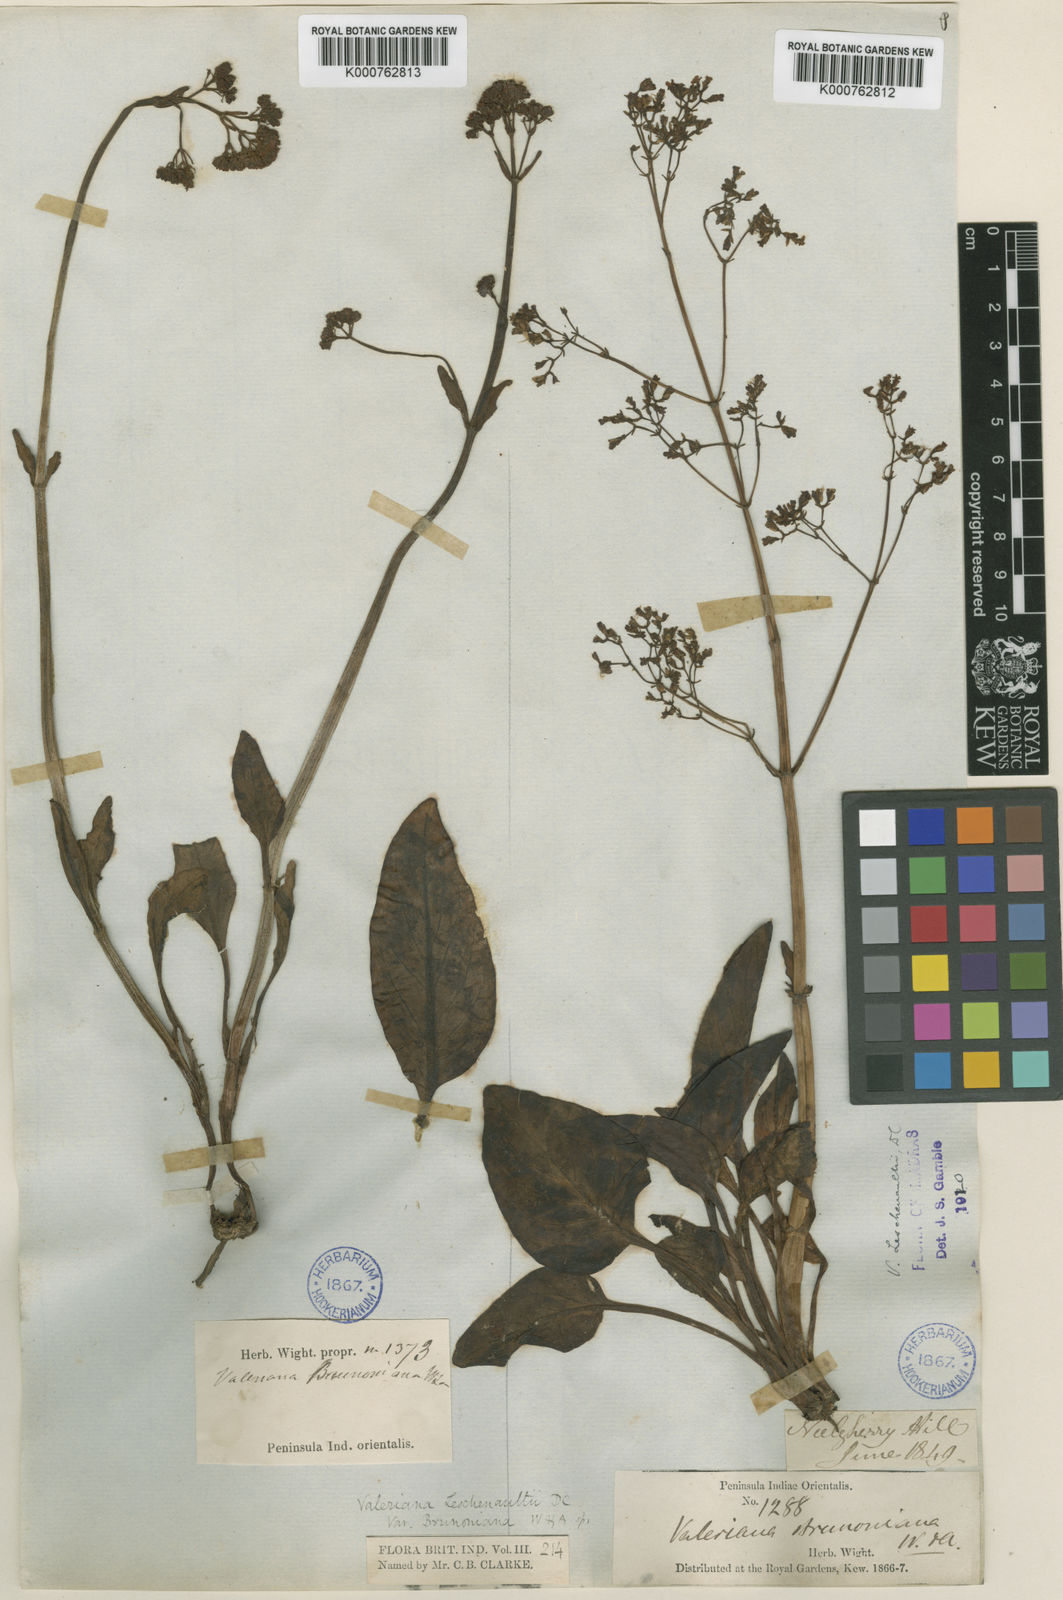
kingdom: Plantae
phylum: Tracheophyta
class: Magnoliopsida
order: Dipsacales
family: Caprifoliaceae
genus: Valeriana
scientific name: Valeriana leschenaultii
